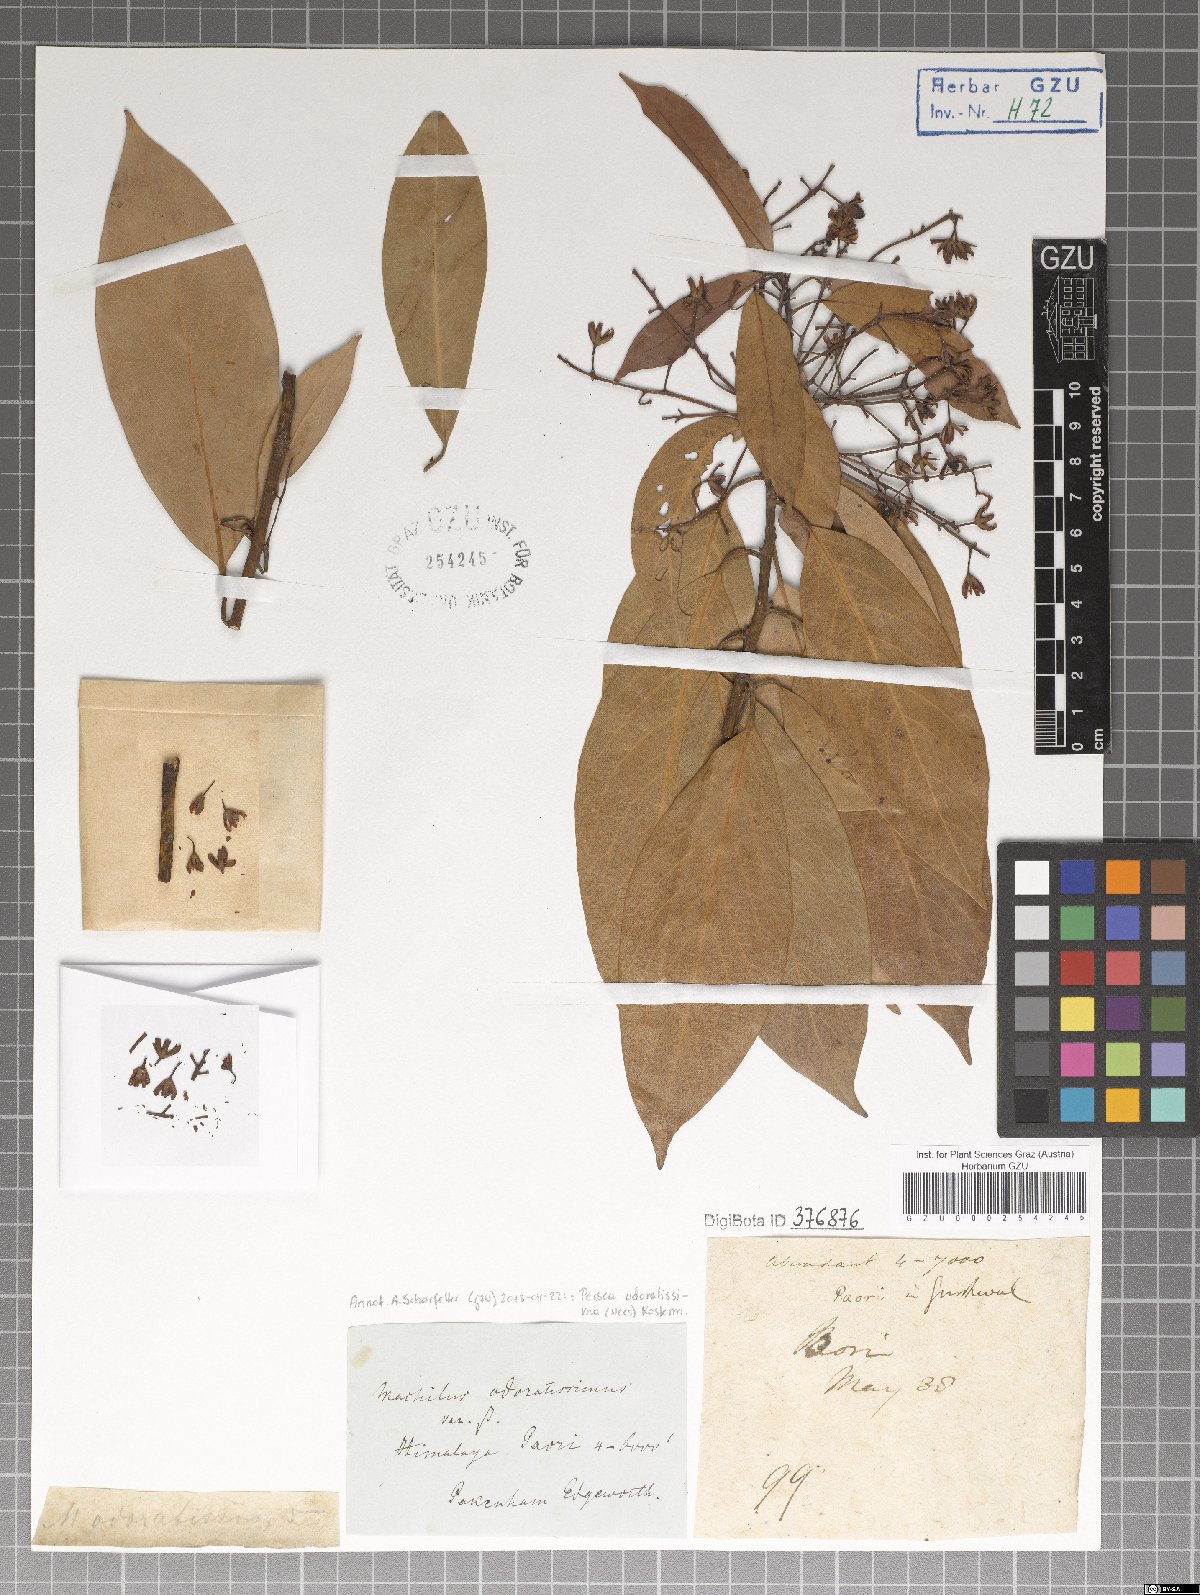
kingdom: Plantae
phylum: Tracheophyta
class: Magnoliopsida
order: Laurales
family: Lauraceae
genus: Machilus
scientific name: Machilus odoratissimus
